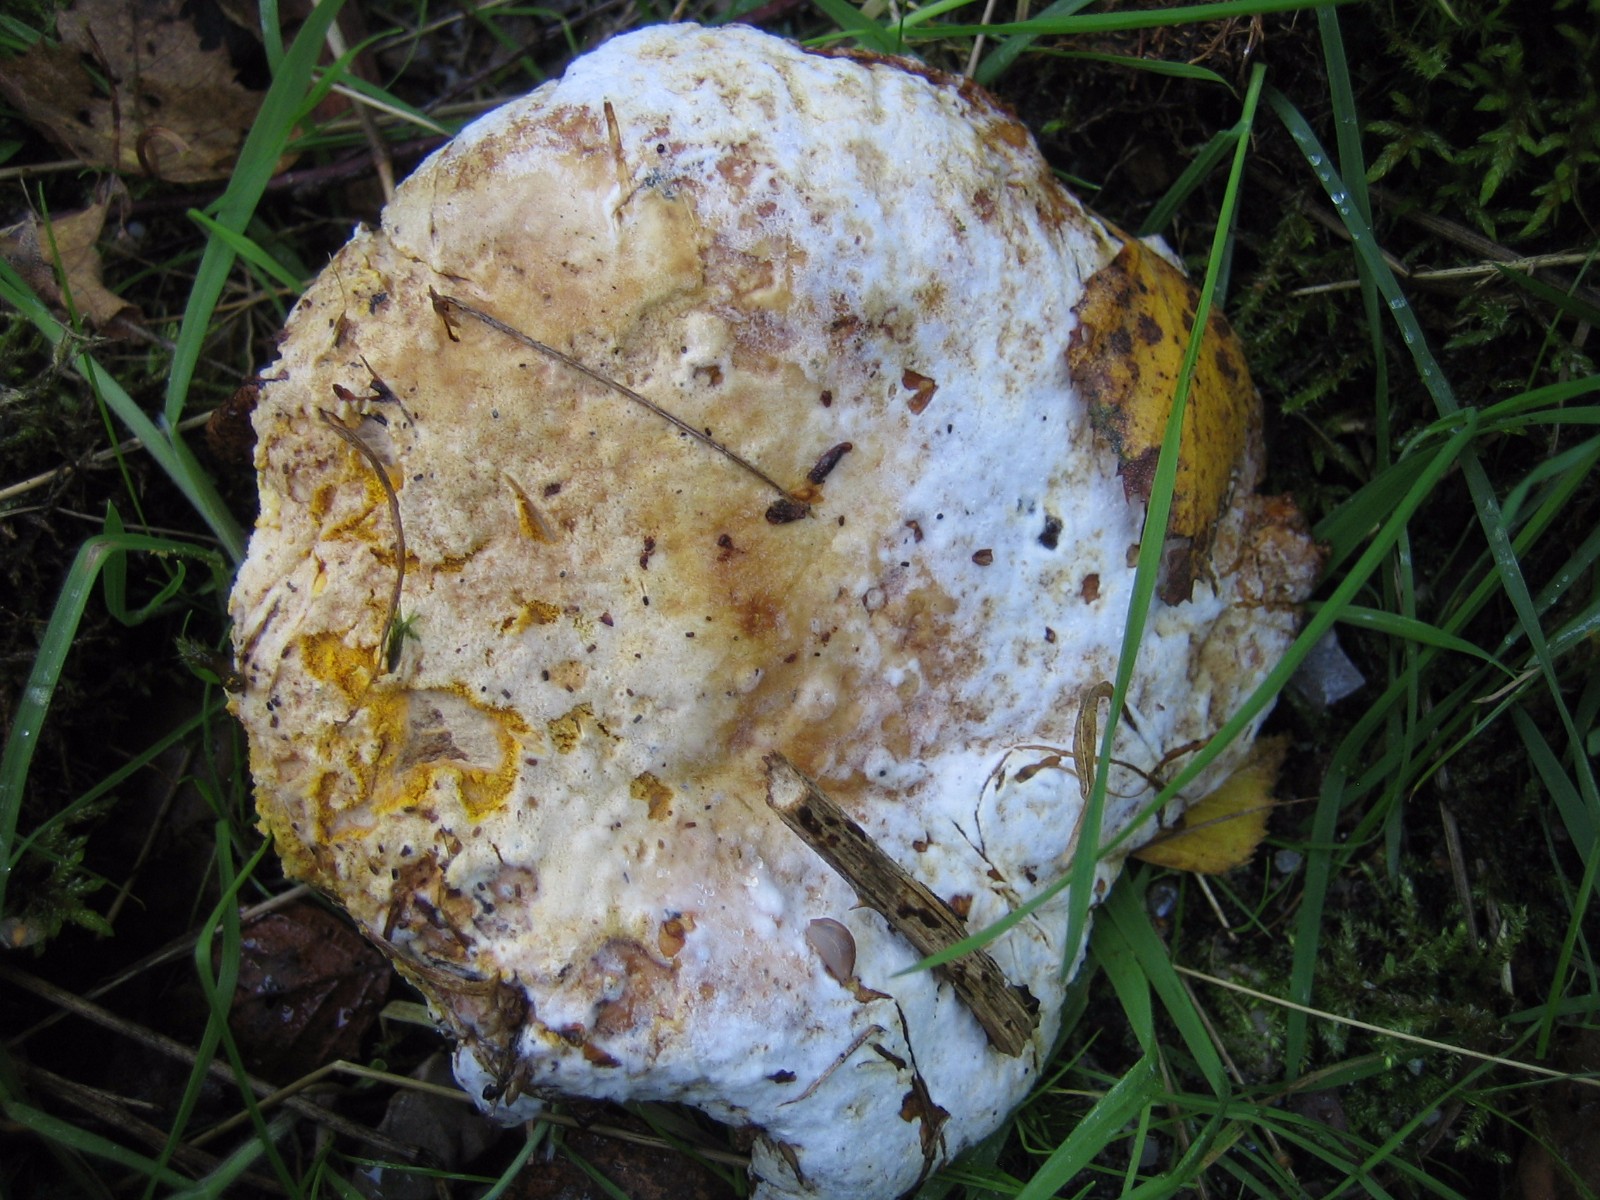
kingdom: Fungi
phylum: Ascomycota
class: Sordariomycetes
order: Hypocreales
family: Hypocreaceae
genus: Hypomyces
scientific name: Hypomyces chrysospermus
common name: gulskimmel-snylteskorpe
